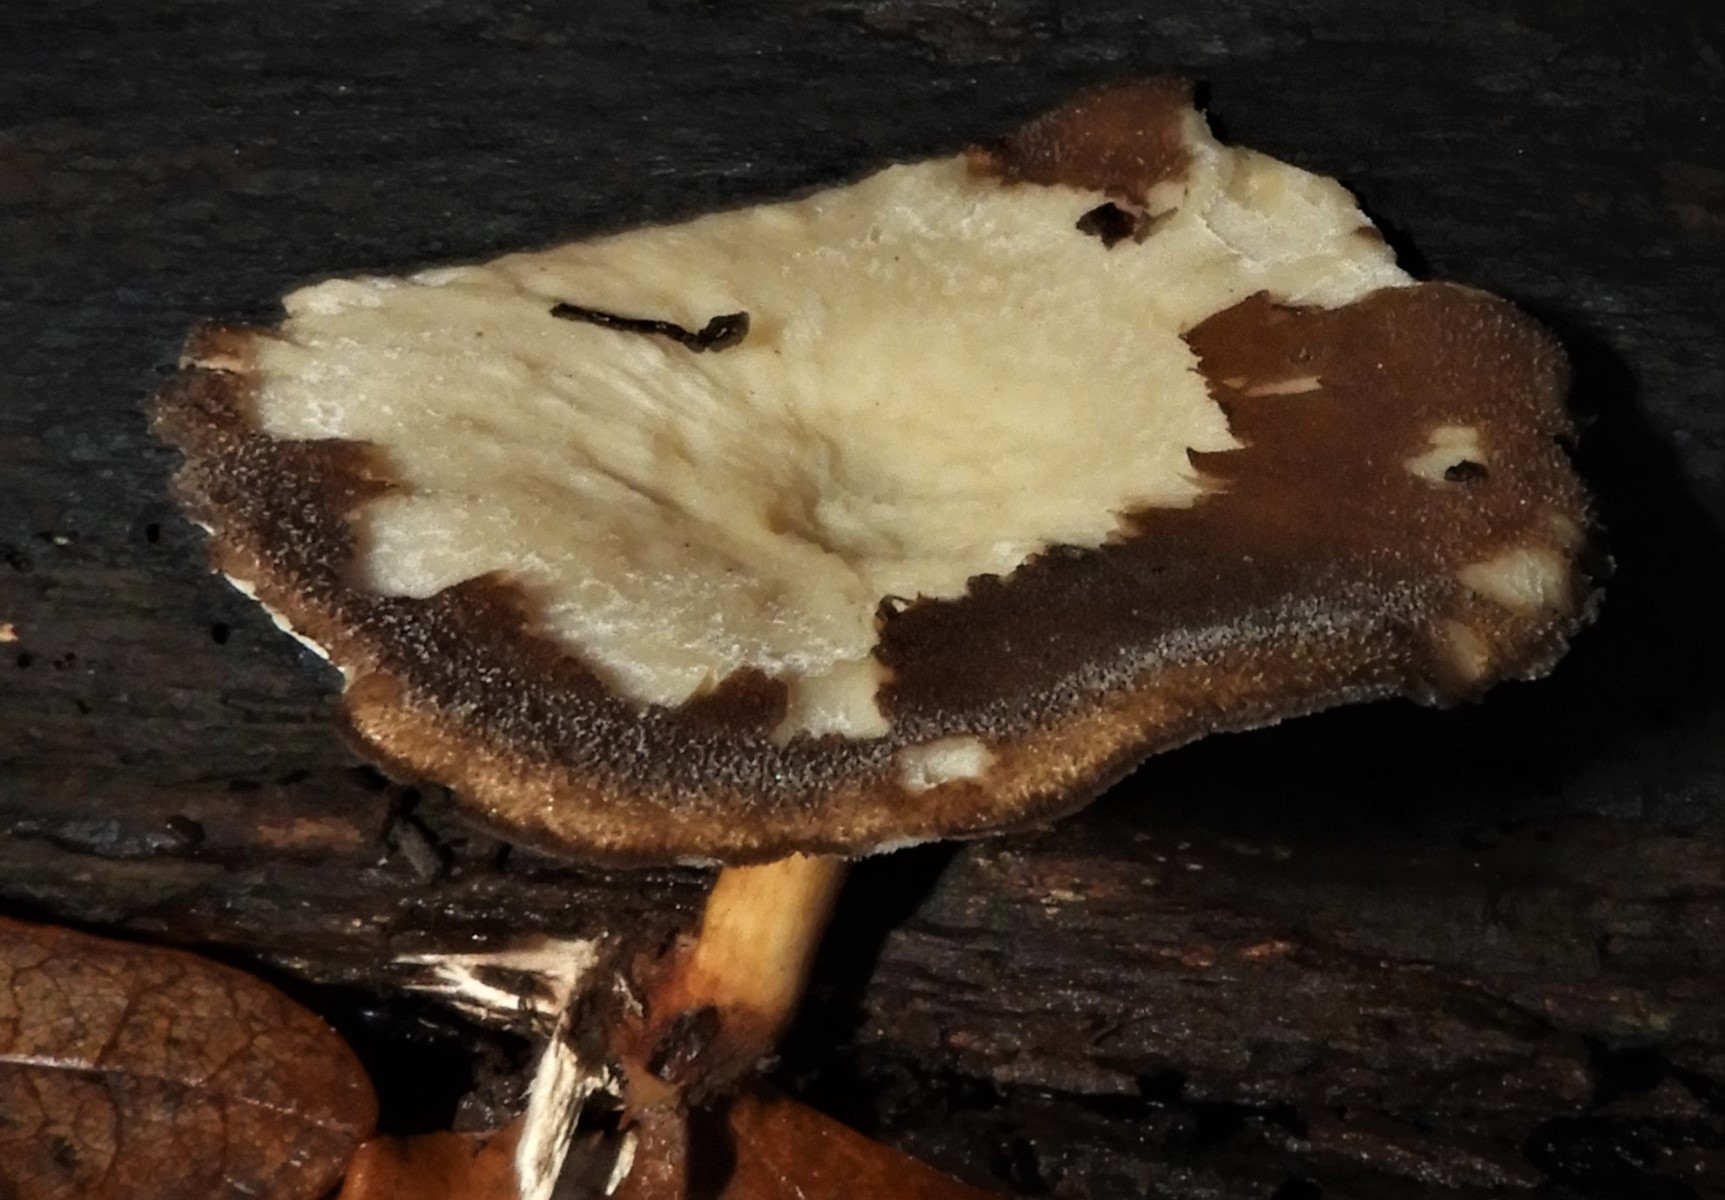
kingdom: Fungi
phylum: Basidiomycota
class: Agaricomycetes
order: Polyporales
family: Polyporaceae
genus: Lentinus
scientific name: Lentinus brumalis
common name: vinter-stilkporesvamp
